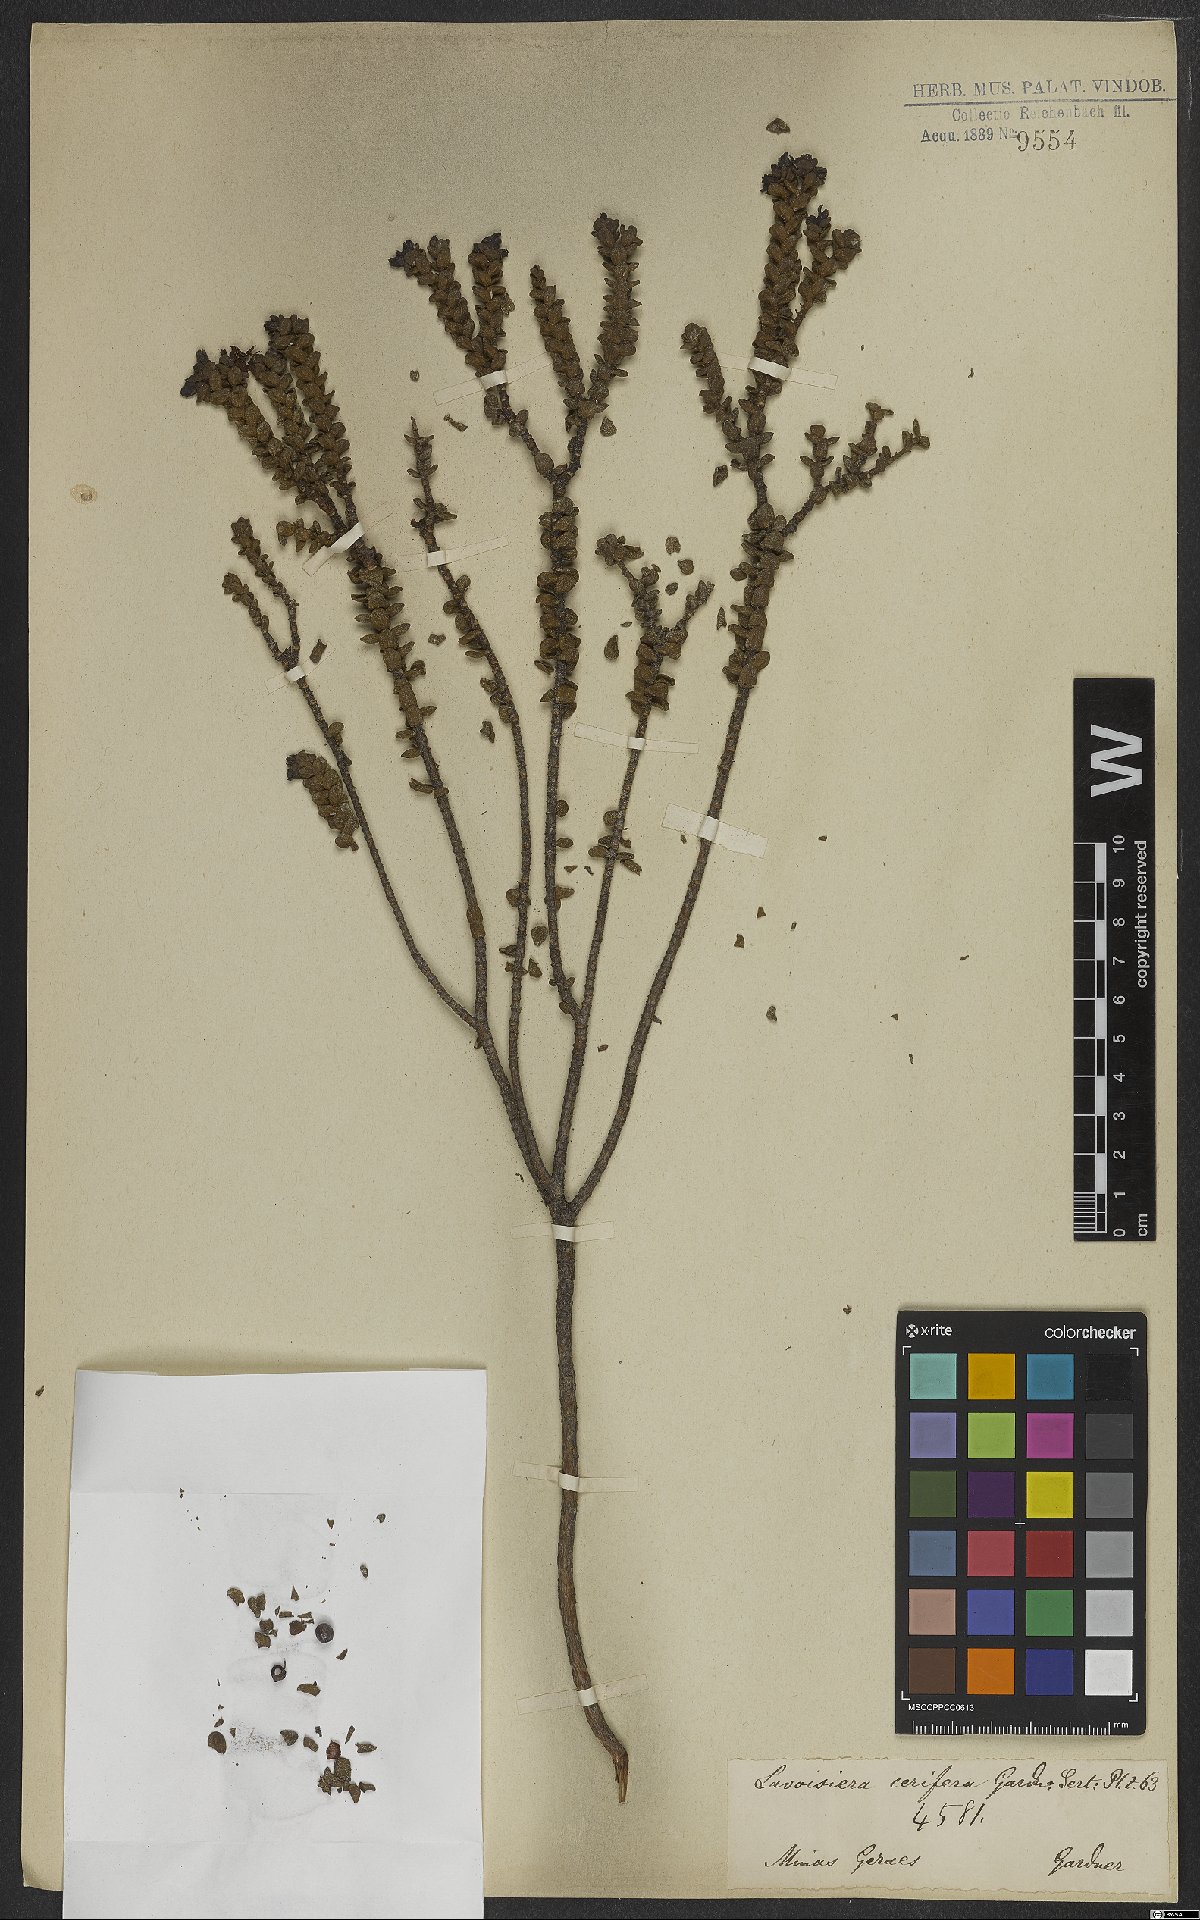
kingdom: Plantae
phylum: Tracheophyta
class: Magnoliopsida
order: Myrtales
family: Melastomataceae
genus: Microlicia
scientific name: Microlicia cerifera
